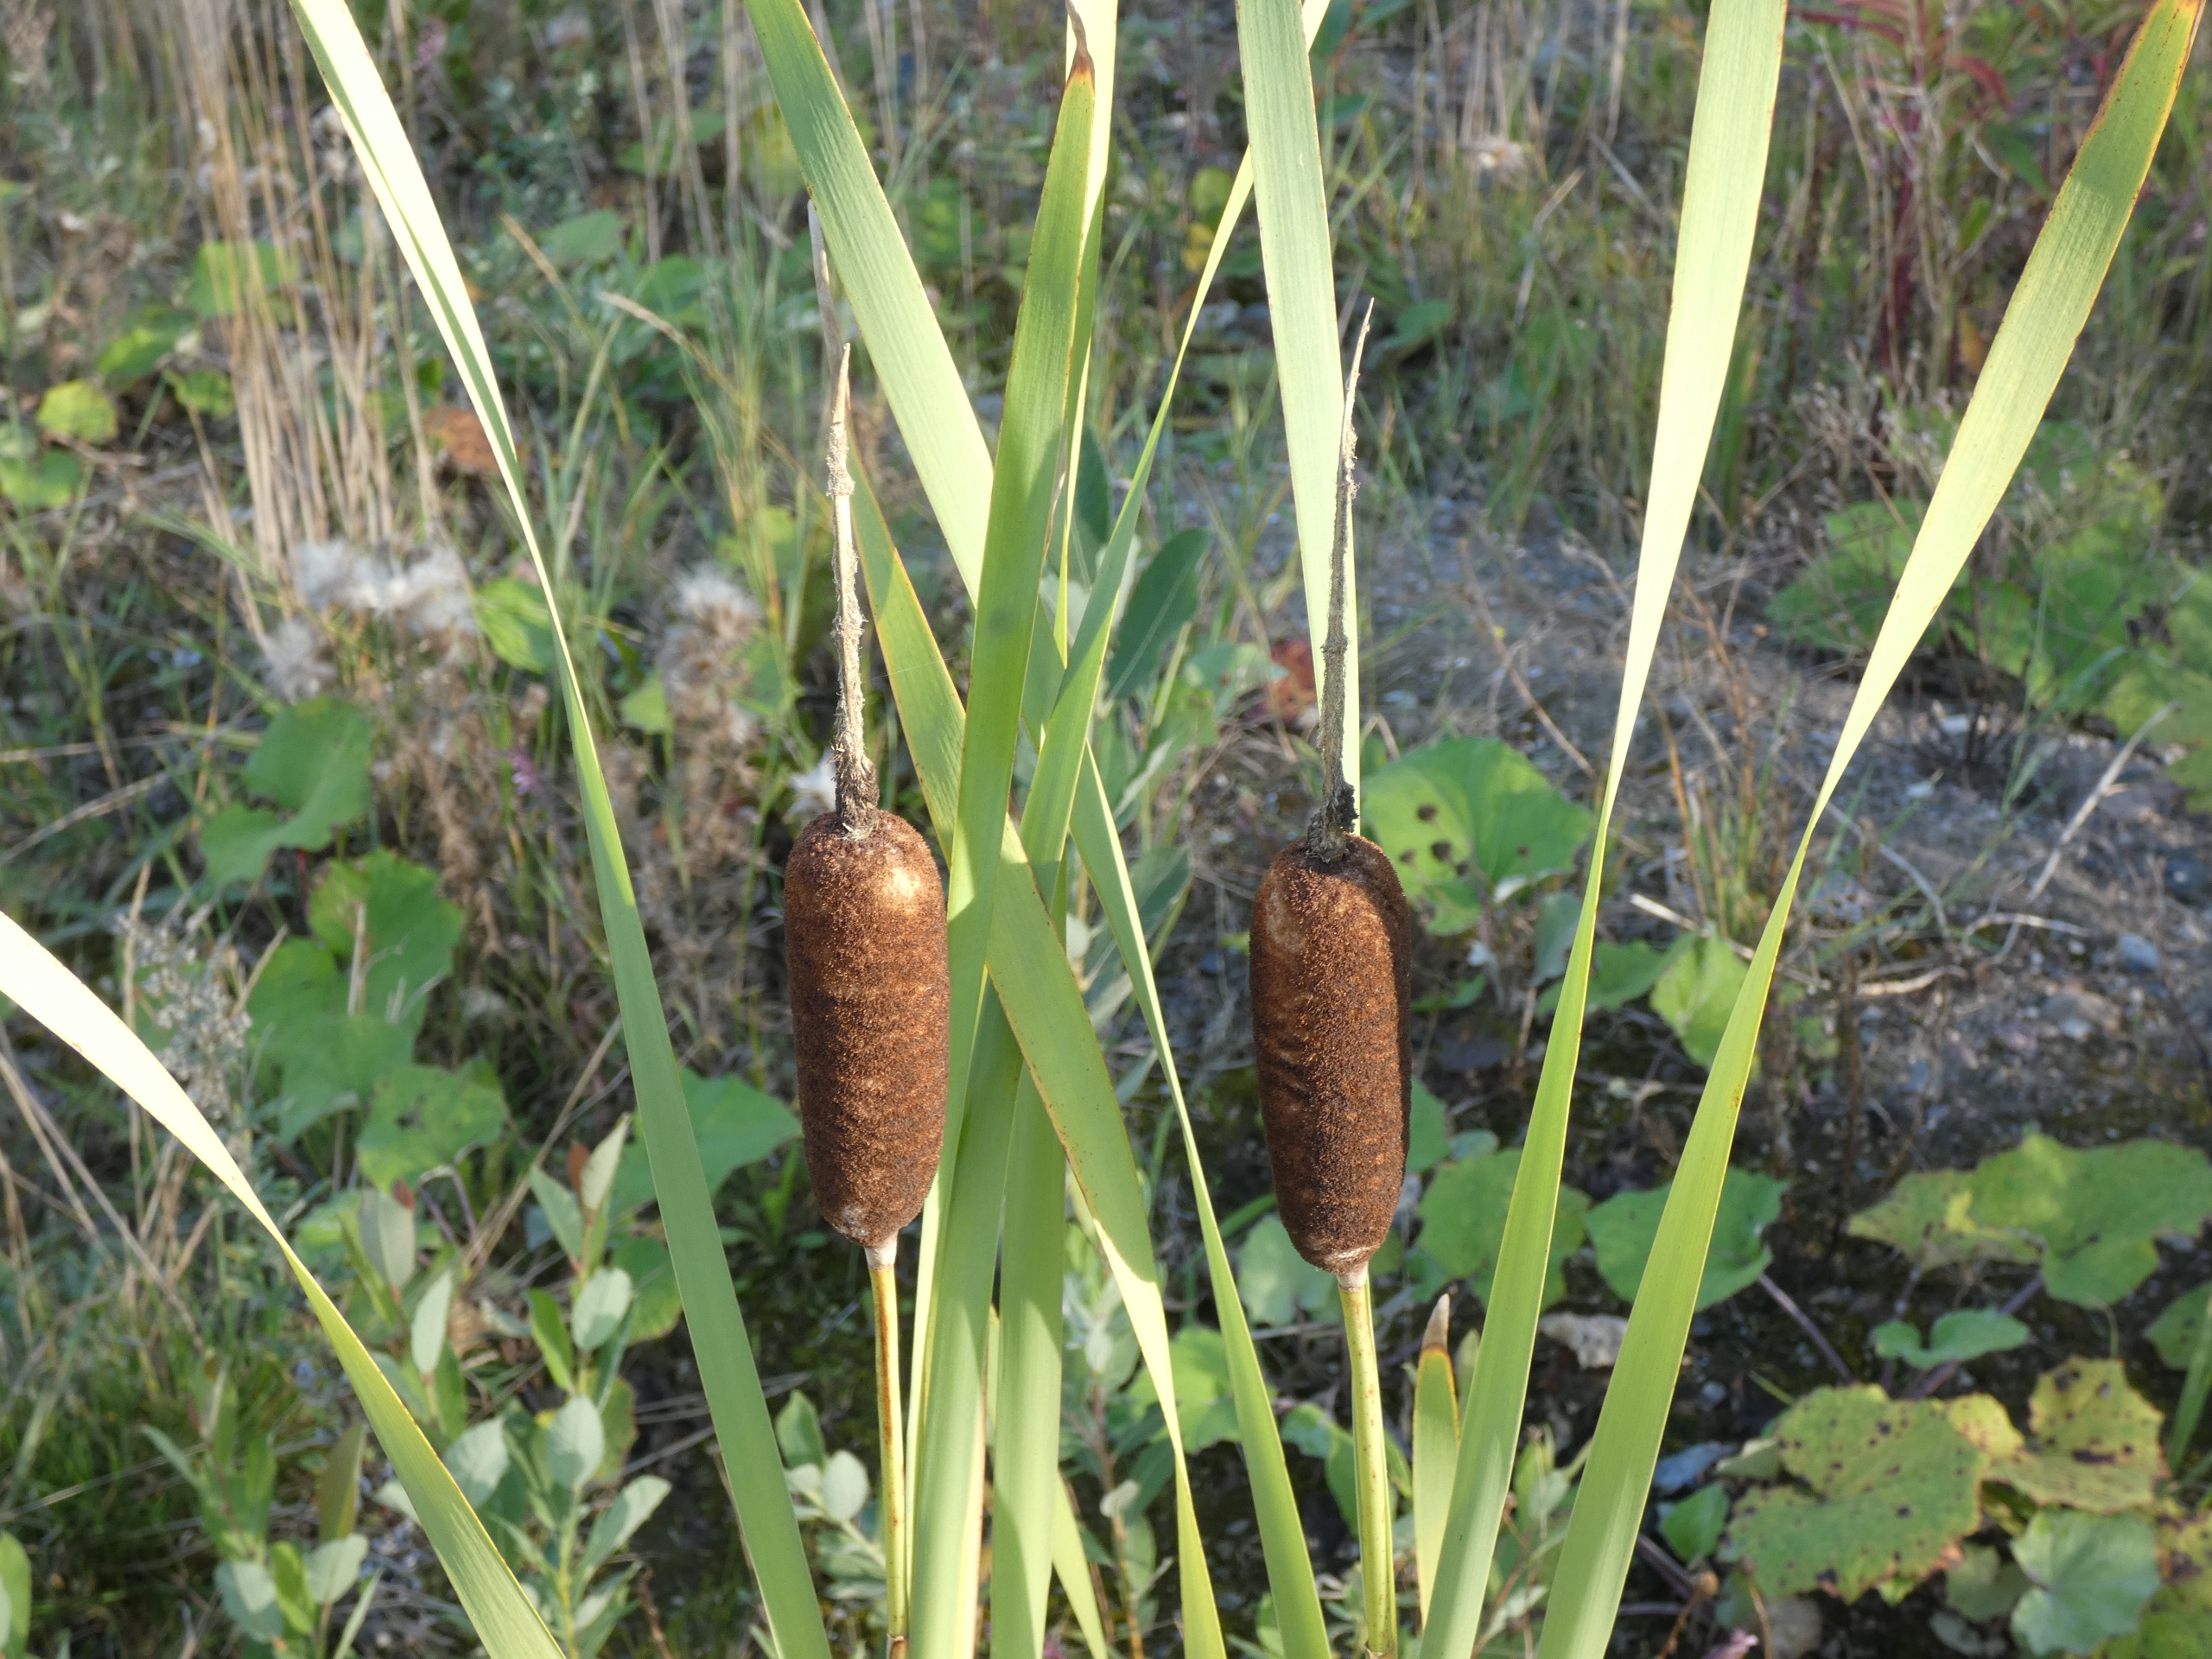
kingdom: Plantae
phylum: Tracheophyta
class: Liliopsida
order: Poales
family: Typhaceae
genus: Typha
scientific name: Typha latifolia
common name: Bredbladet dunhammer
